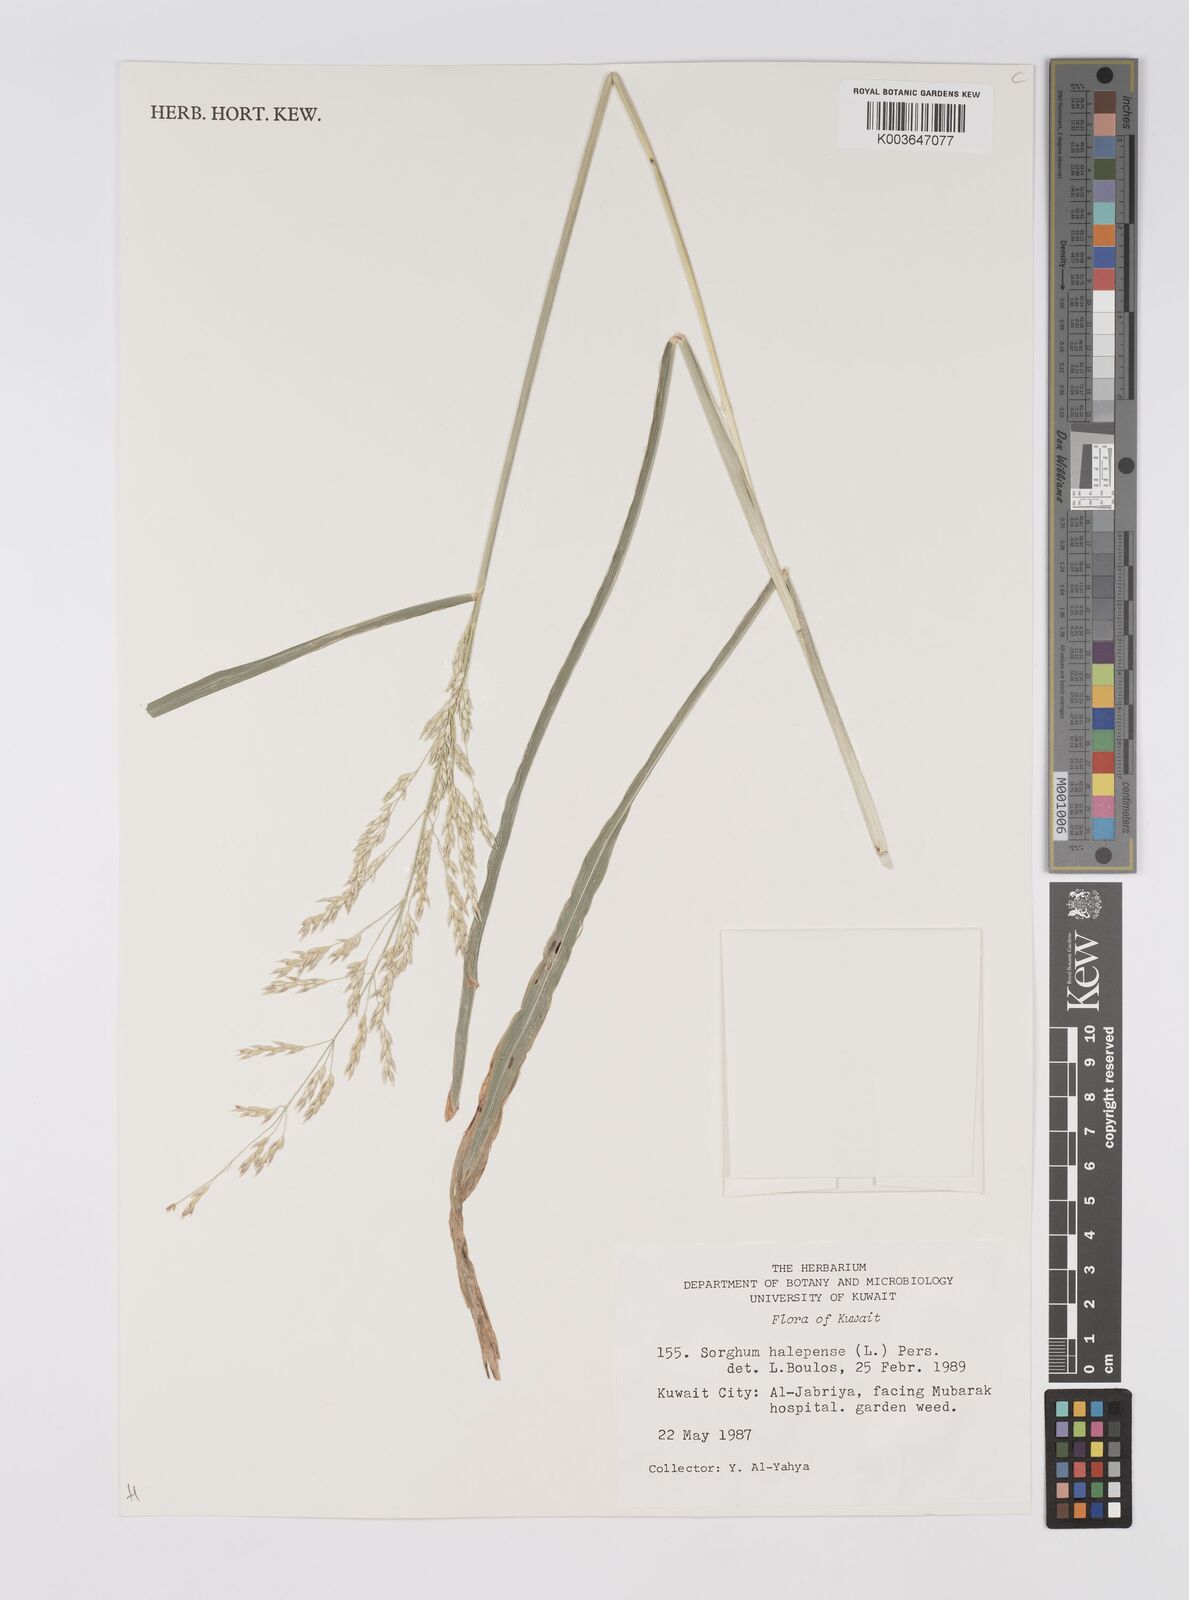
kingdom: Plantae
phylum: Tracheophyta
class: Liliopsida
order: Poales
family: Poaceae
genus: Sorghum
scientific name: Sorghum halepense
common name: Johnson-grass
